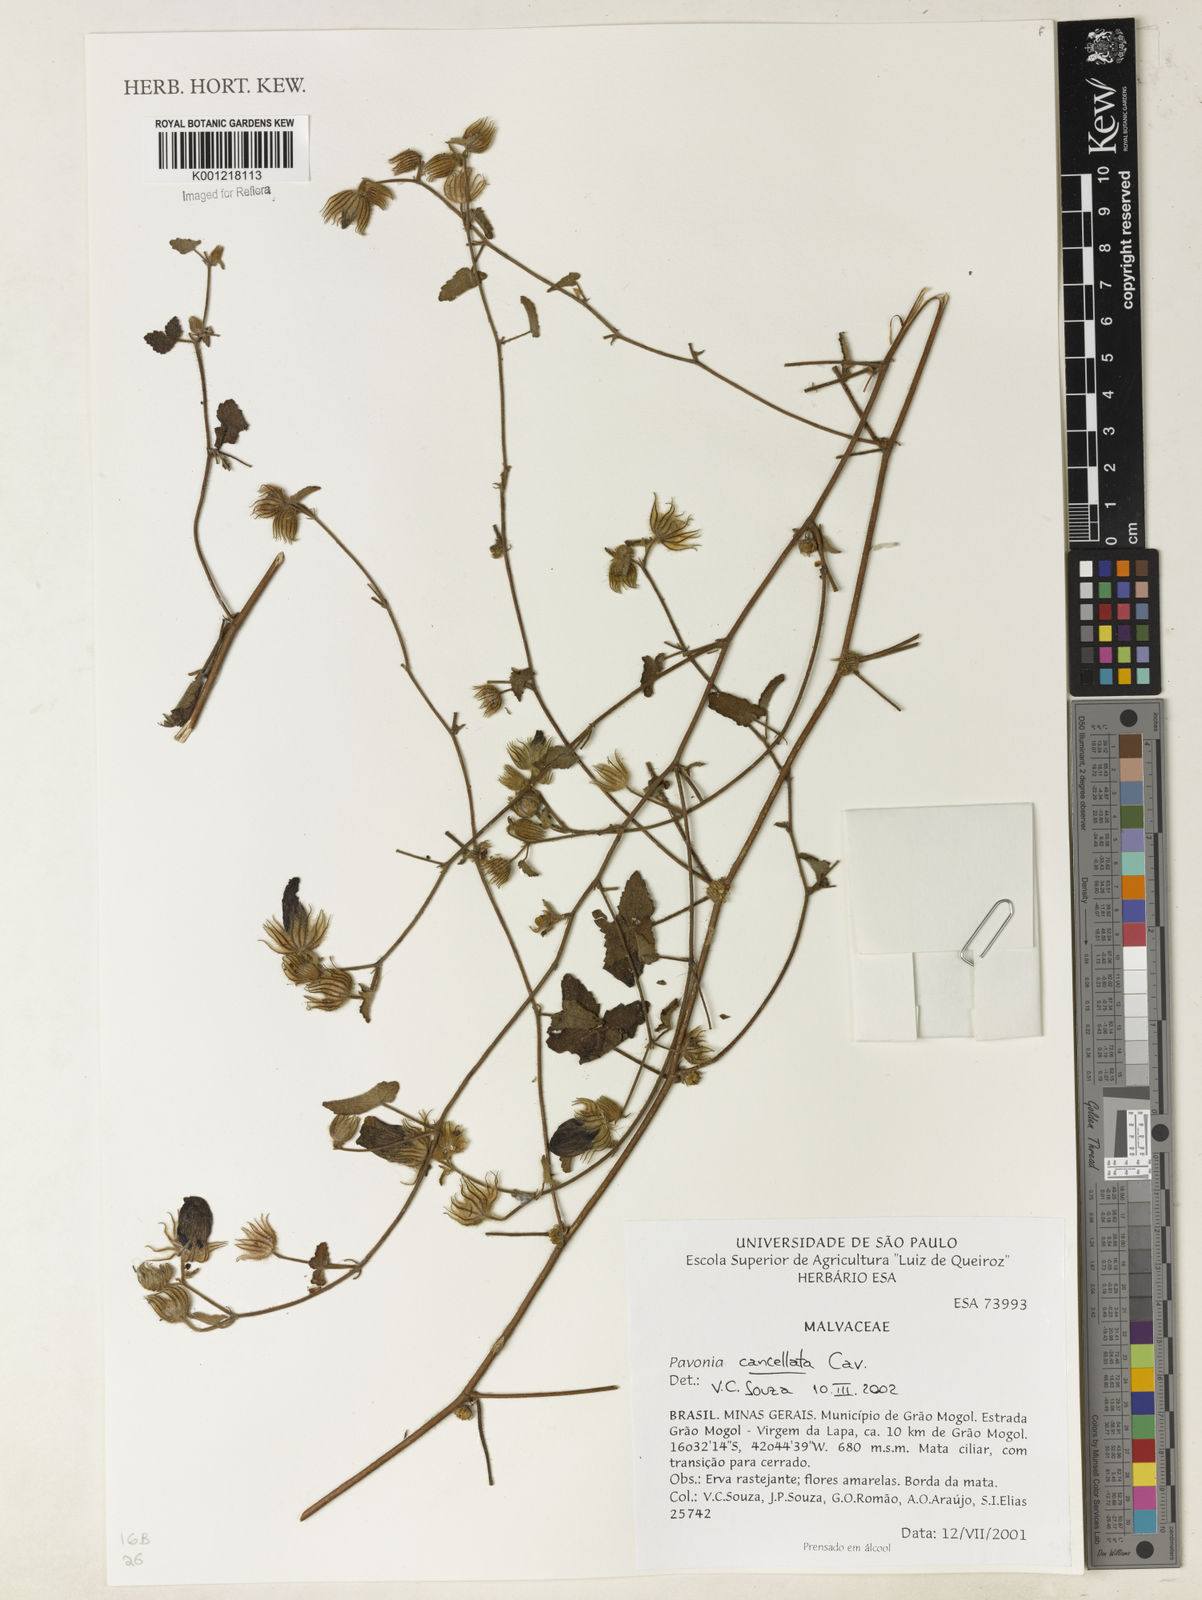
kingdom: Plantae
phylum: Tracheophyta
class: Magnoliopsida
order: Malvales
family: Malvaceae
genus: Pavonia
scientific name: Pavonia cancellata
